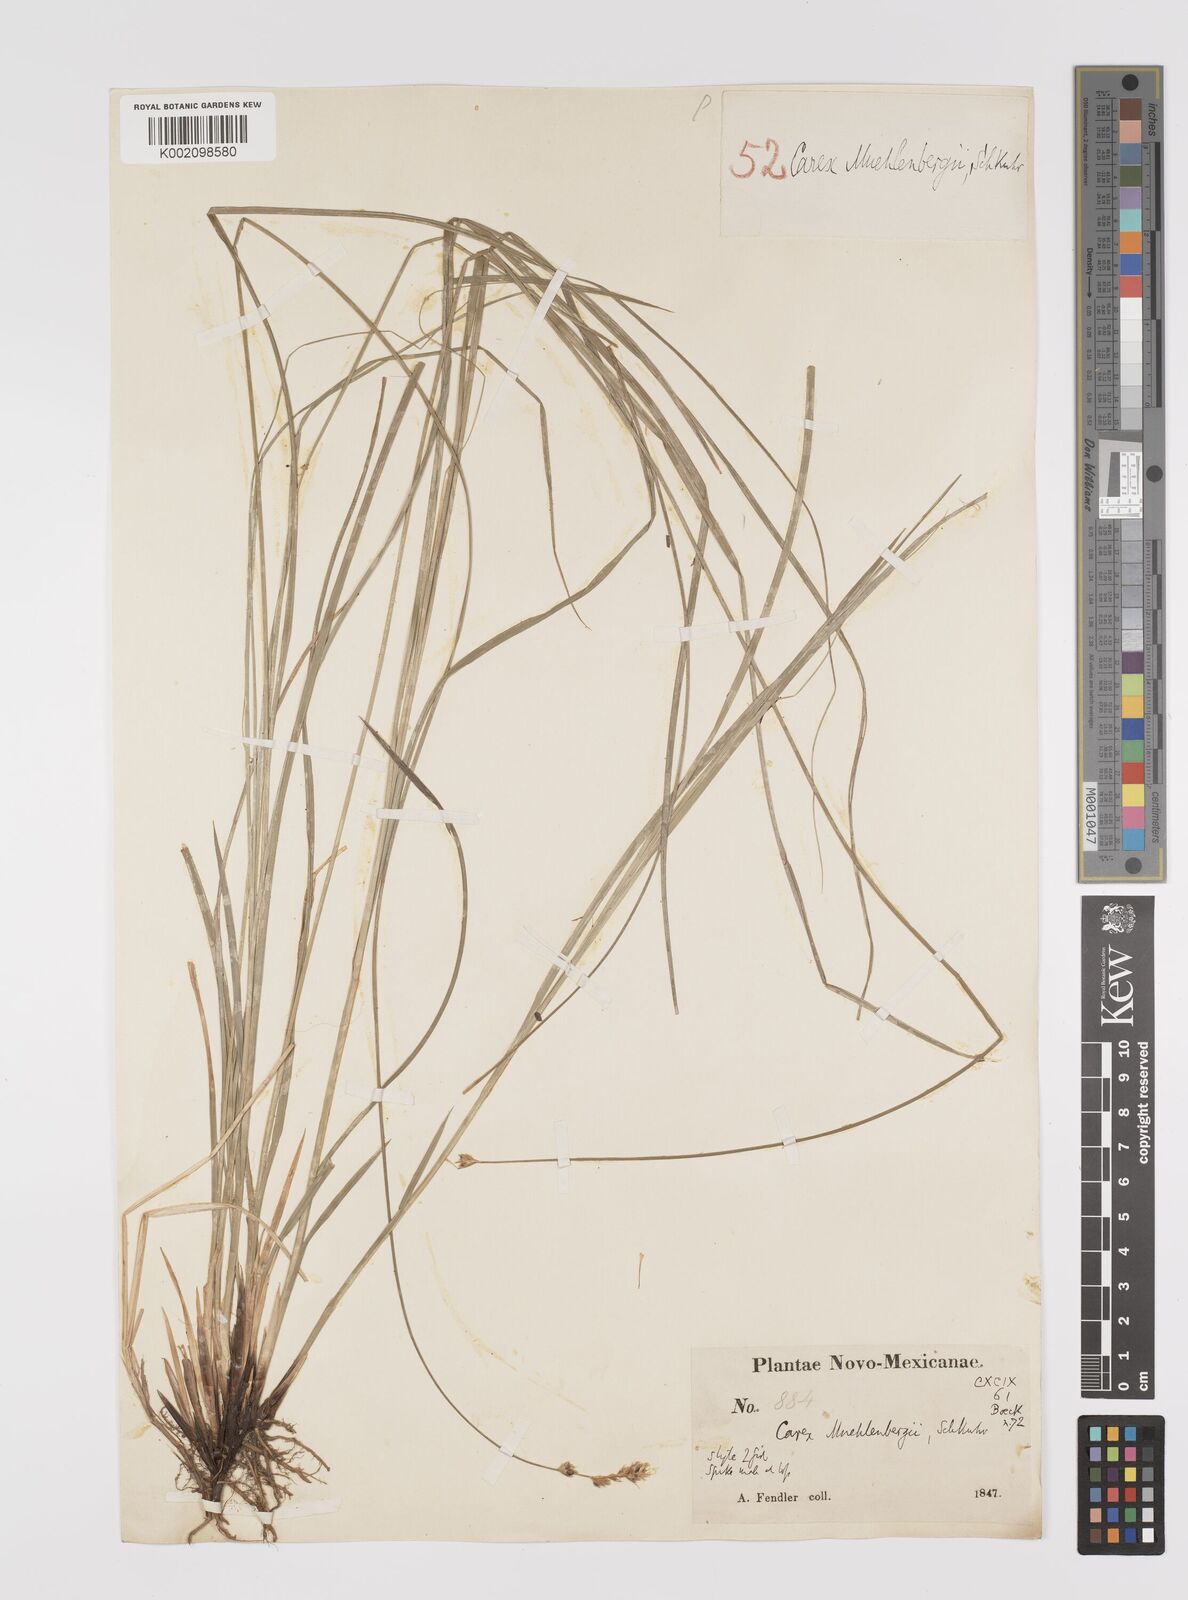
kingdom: Plantae
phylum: Tracheophyta
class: Liliopsida
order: Poales
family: Cyperaceae
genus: Carex
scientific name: Carex vulpinoidea
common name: American fox-sedge
